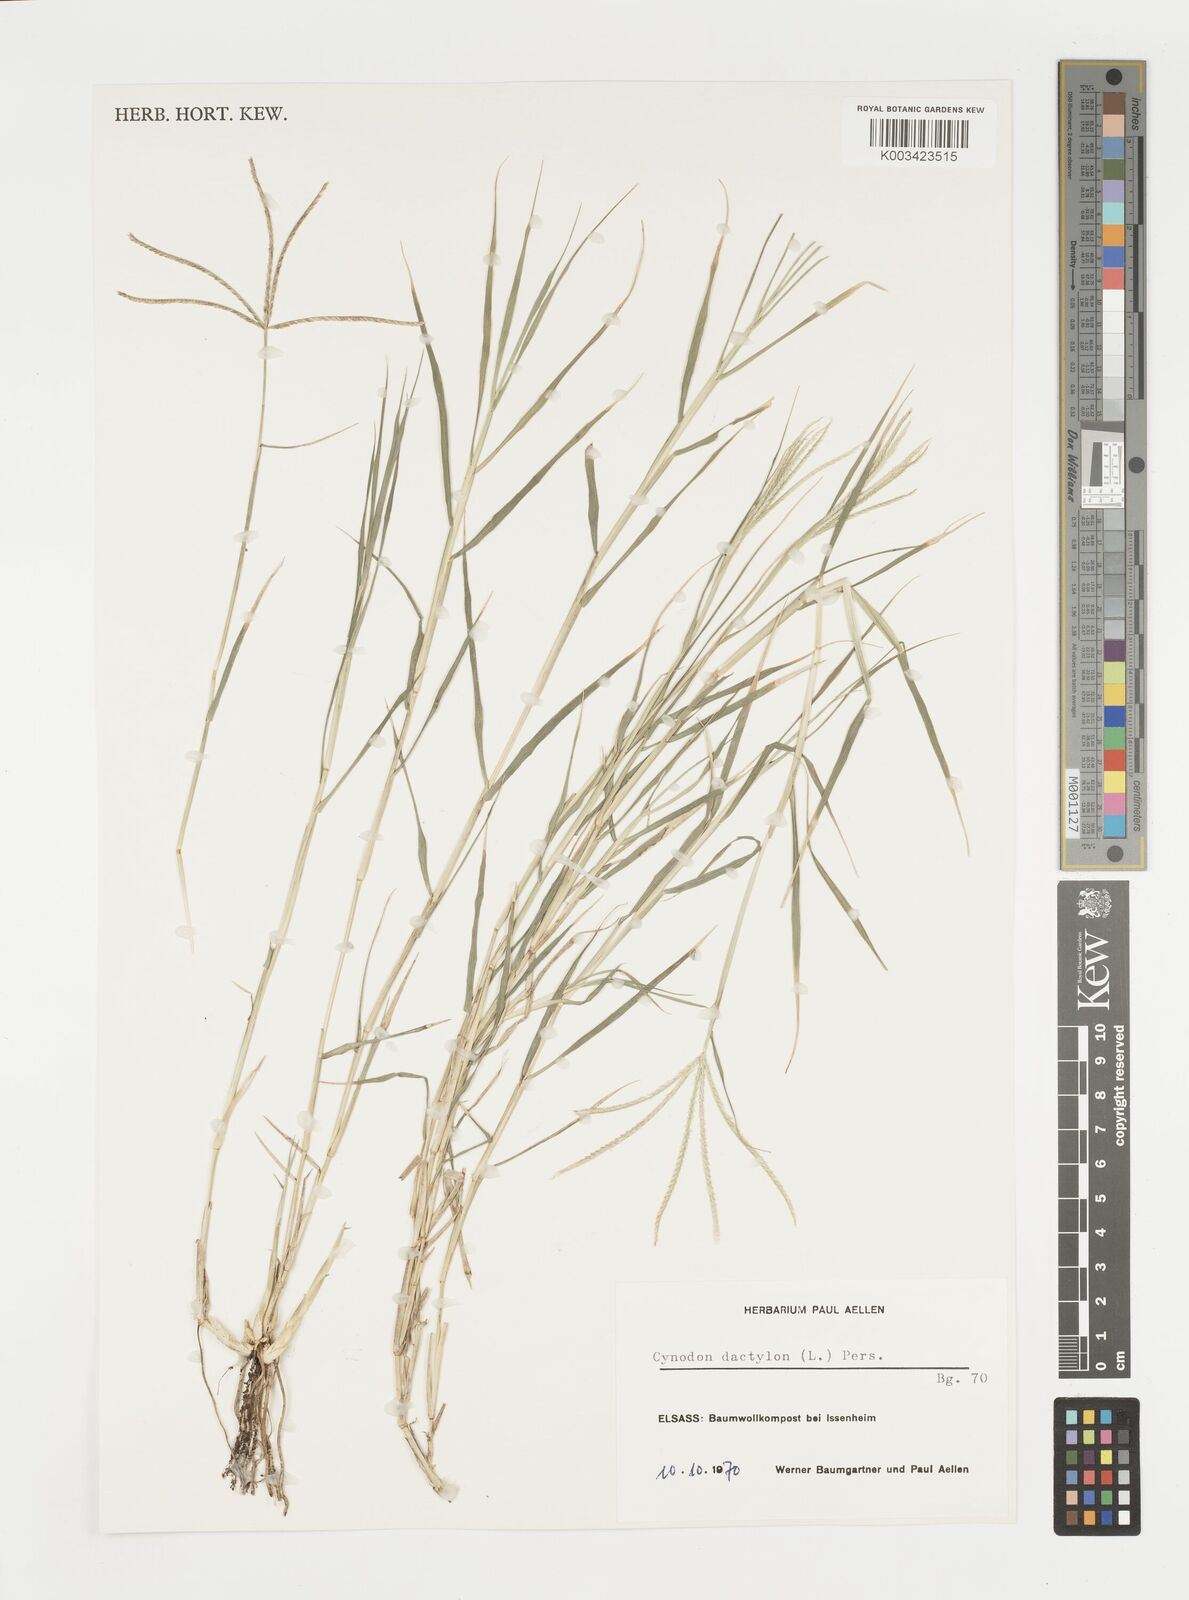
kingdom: Plantae
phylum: Tracheophyta
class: Liliopsida
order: Poales
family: Poaceae
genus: Cynodon
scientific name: Cynodon dactylon
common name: Bermuda grass
